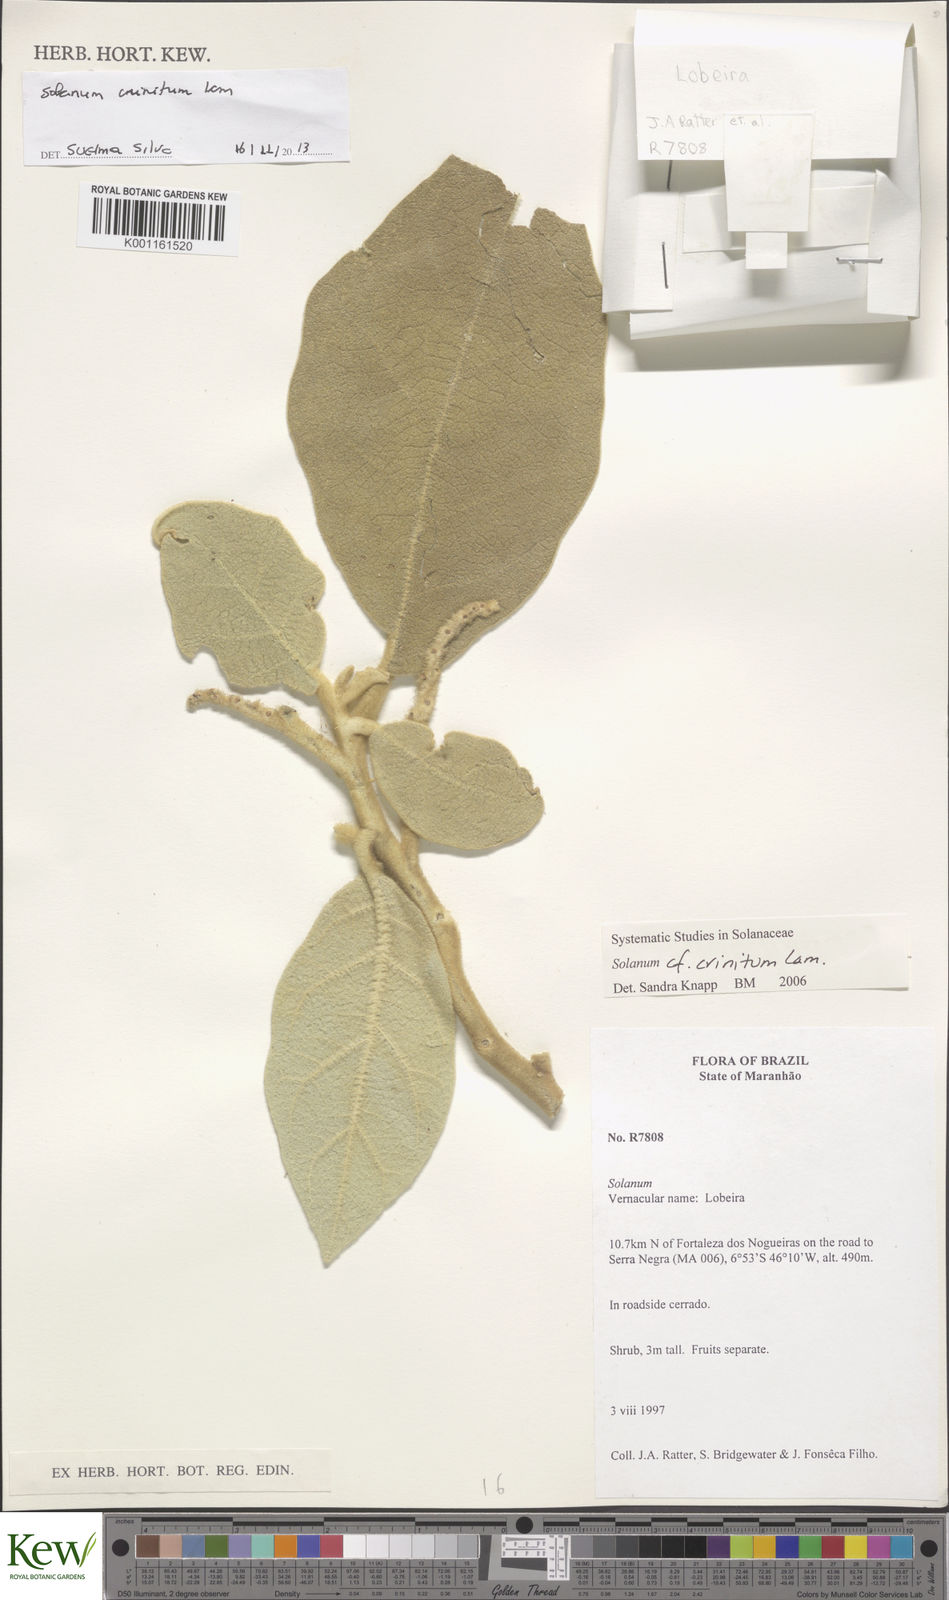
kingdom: Plantae
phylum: Tracheophyta
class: Magnoliopsida
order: Solanales
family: Solanaceae
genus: Solanum
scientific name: Solanum crinitum
